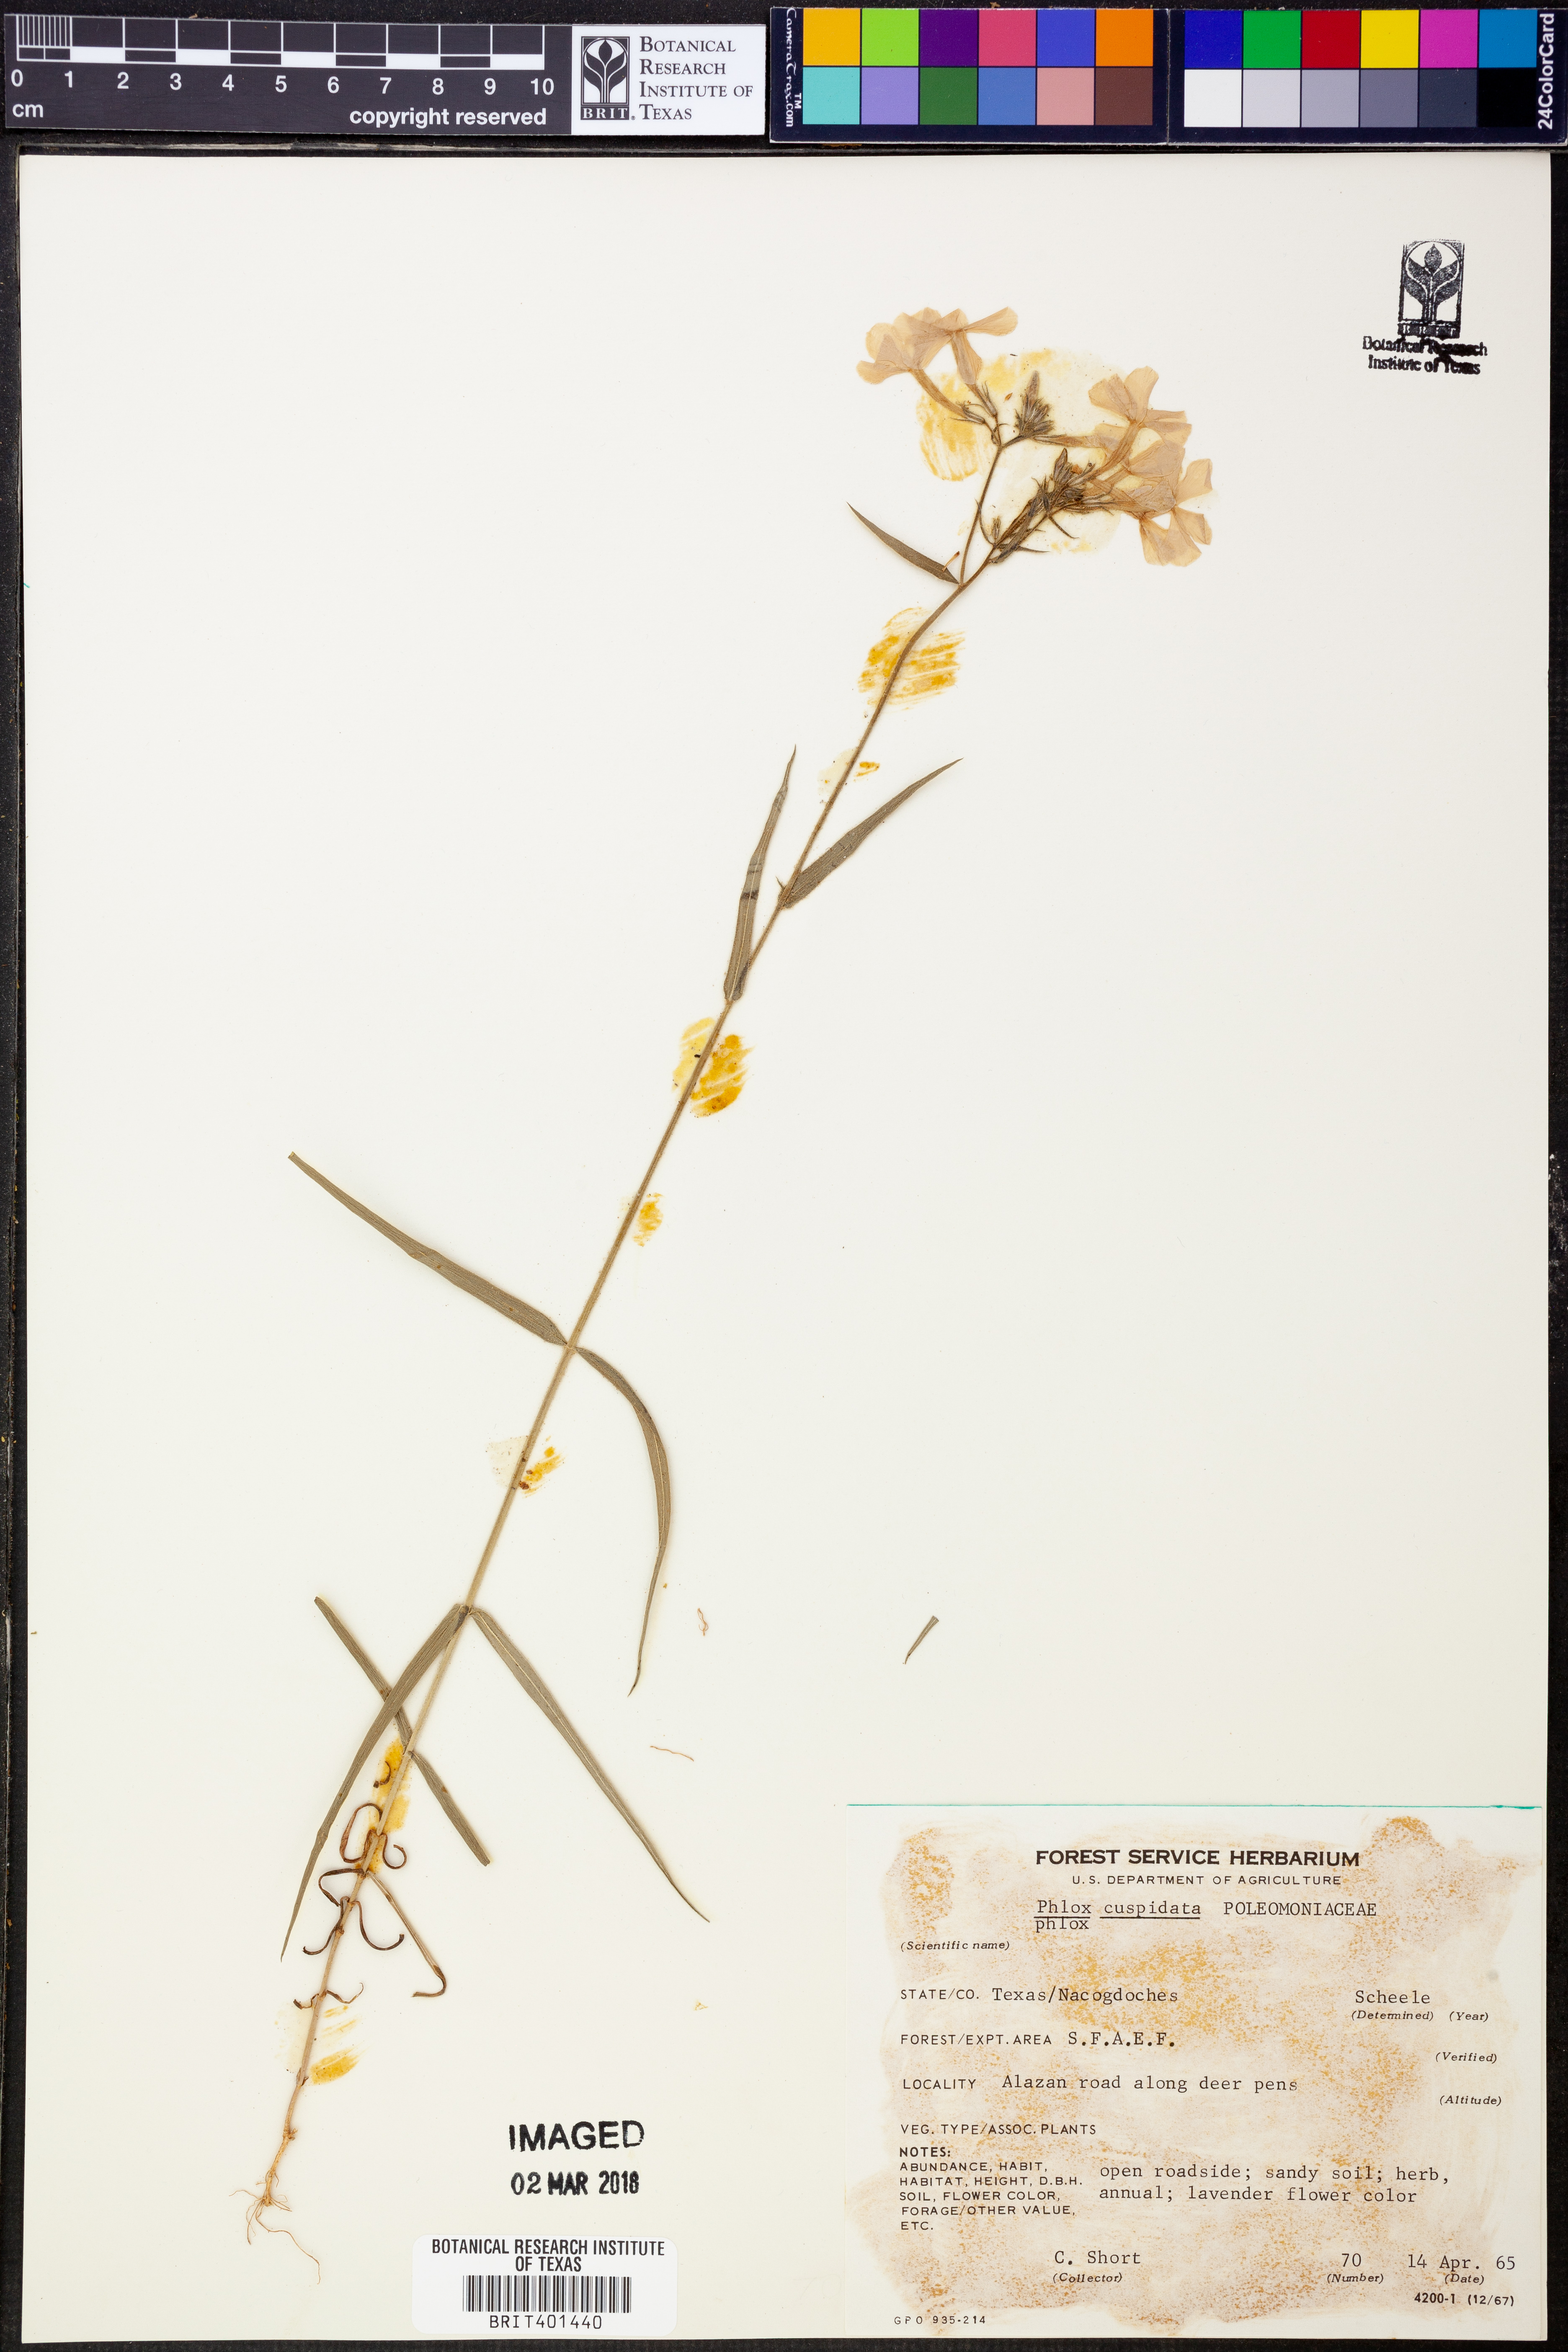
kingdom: Plantae
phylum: Tracheophyta
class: Magnoliopsida
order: Ericales
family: Polemoniaceae
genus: Phlox
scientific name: Phlox cuspidata
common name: Pointed phlox
